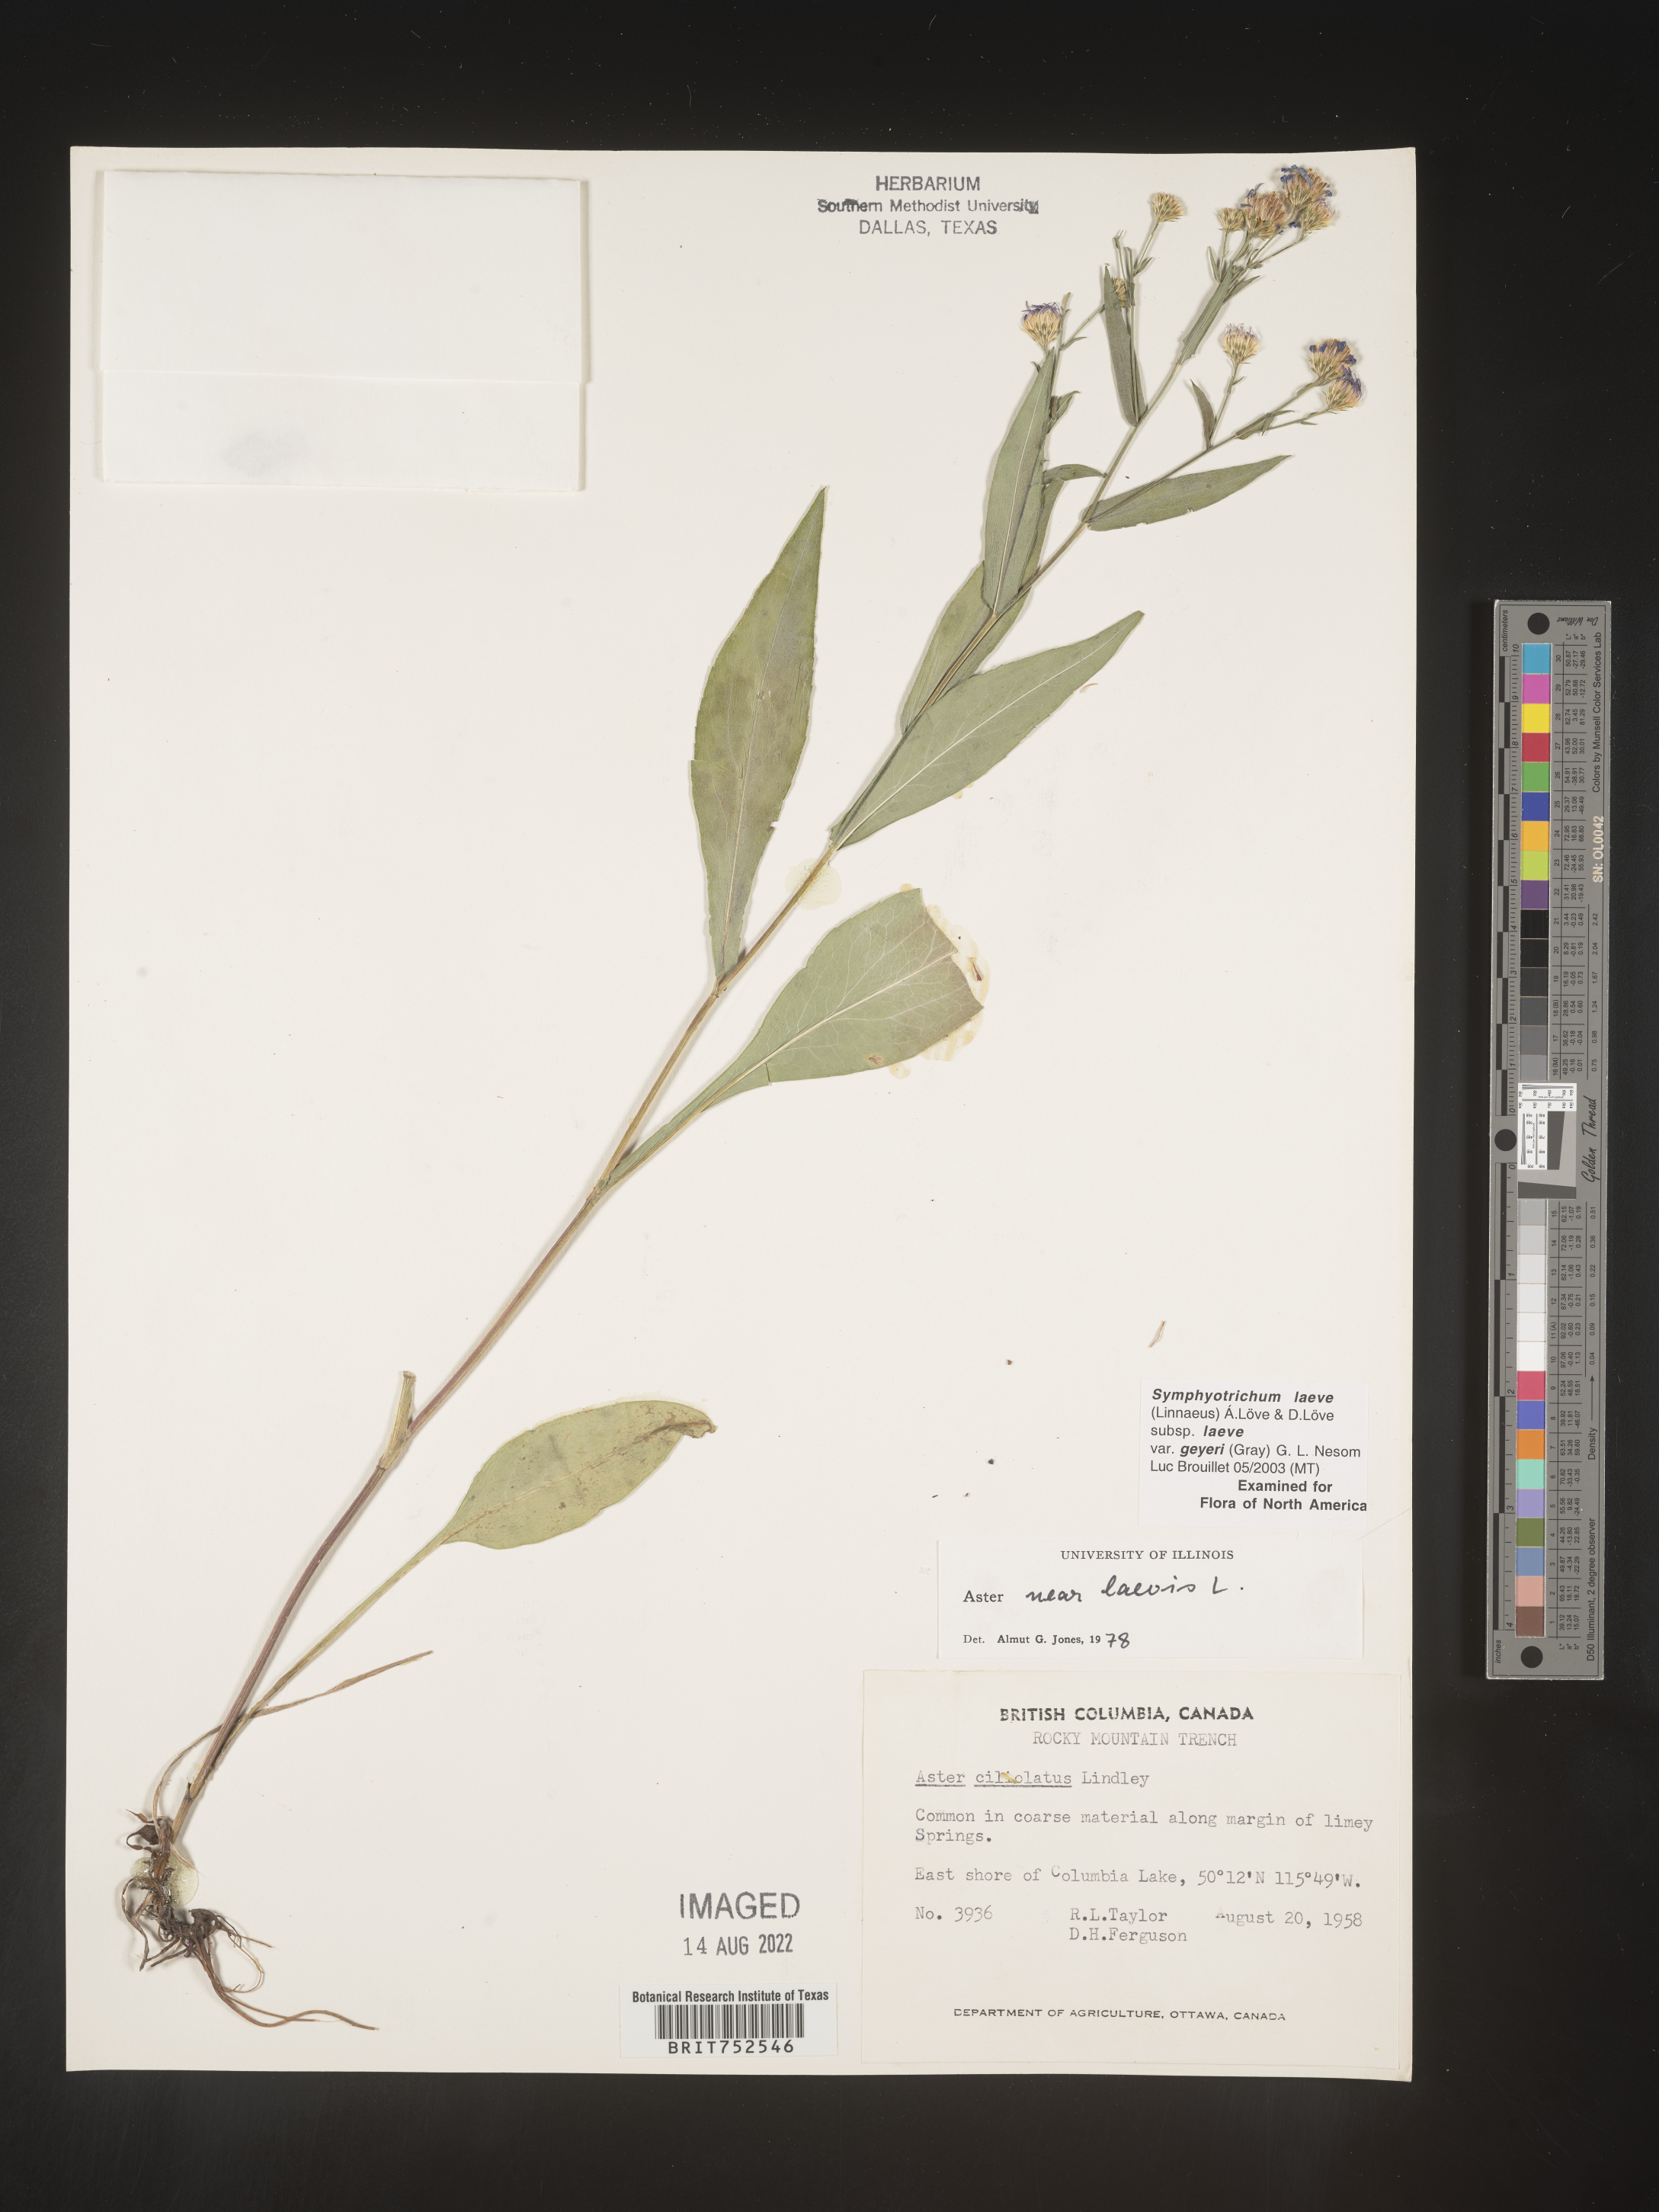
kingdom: Plantae
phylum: Tracheophyta
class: Magnoliopsida
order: Asterales
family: Asteraceae
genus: Symphyotrichum
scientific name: Symphyotrichum laeve
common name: Glaucous aster
